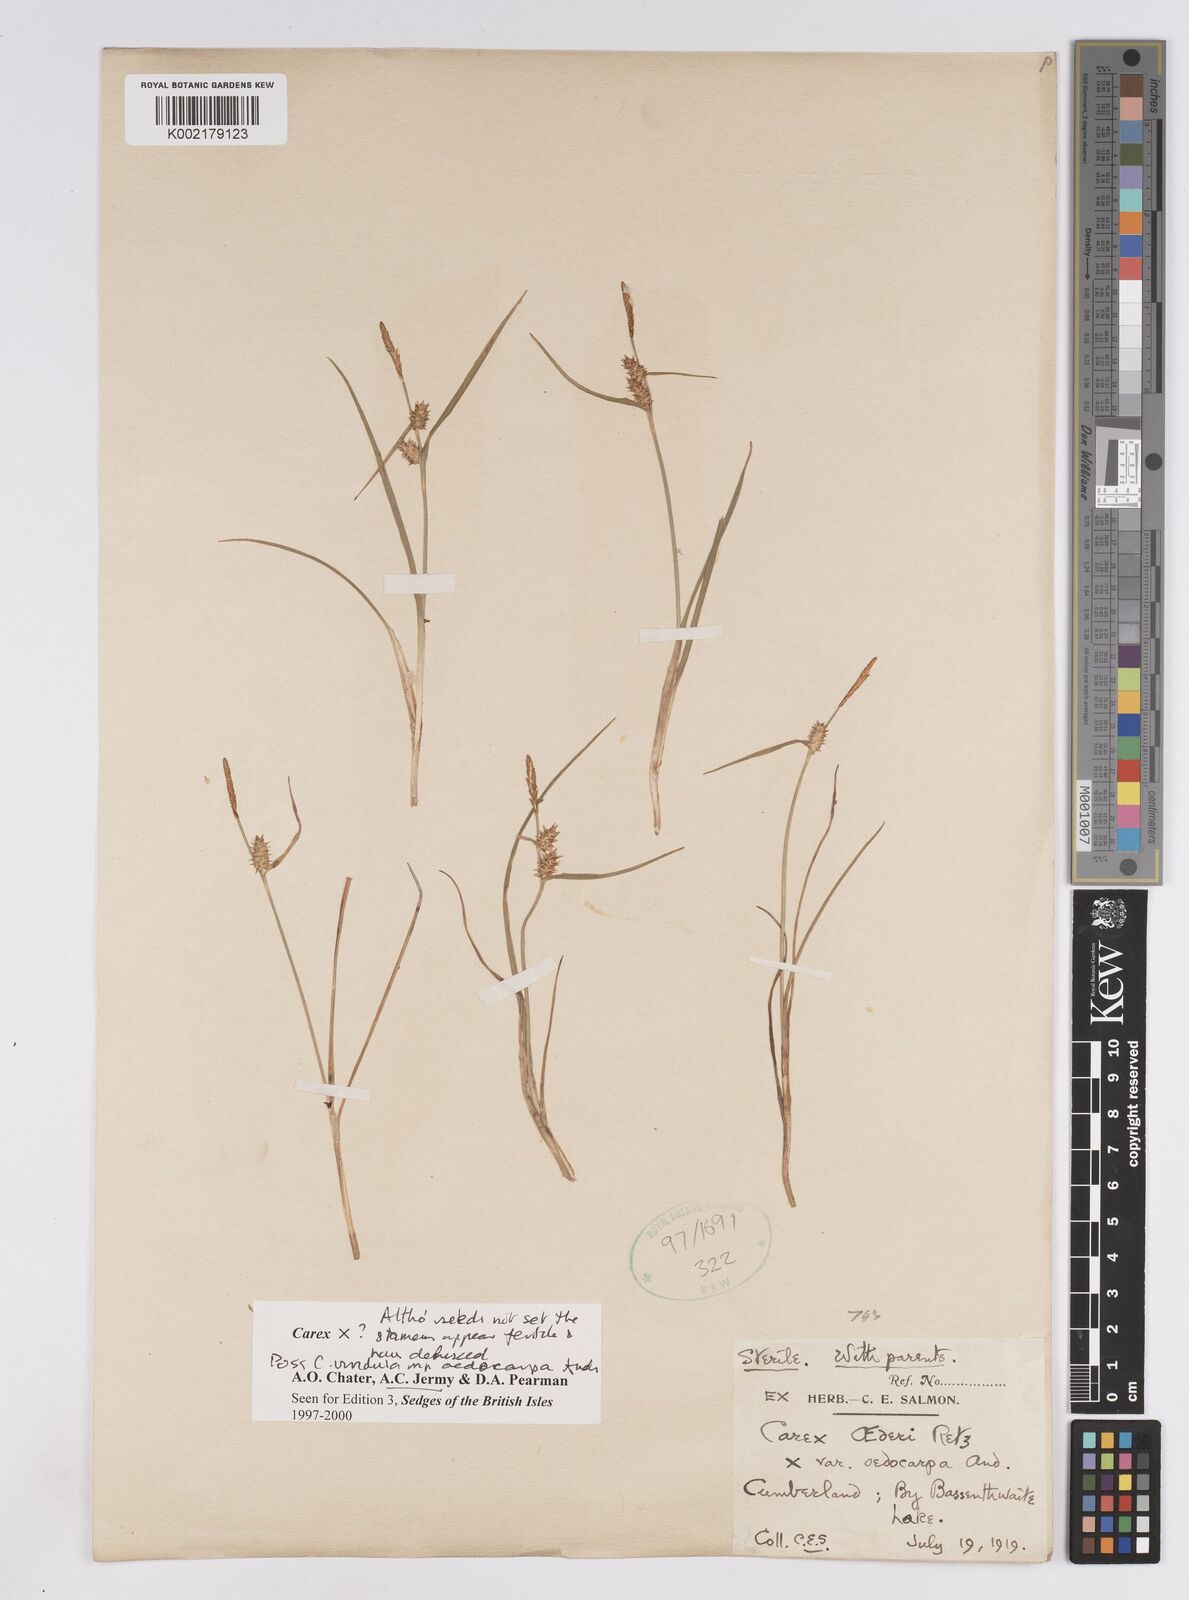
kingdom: Plantae
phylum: Tracheophyta
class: Liliopsida
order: Poales
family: Cyperaceae
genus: Carex
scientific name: Carex demissa
